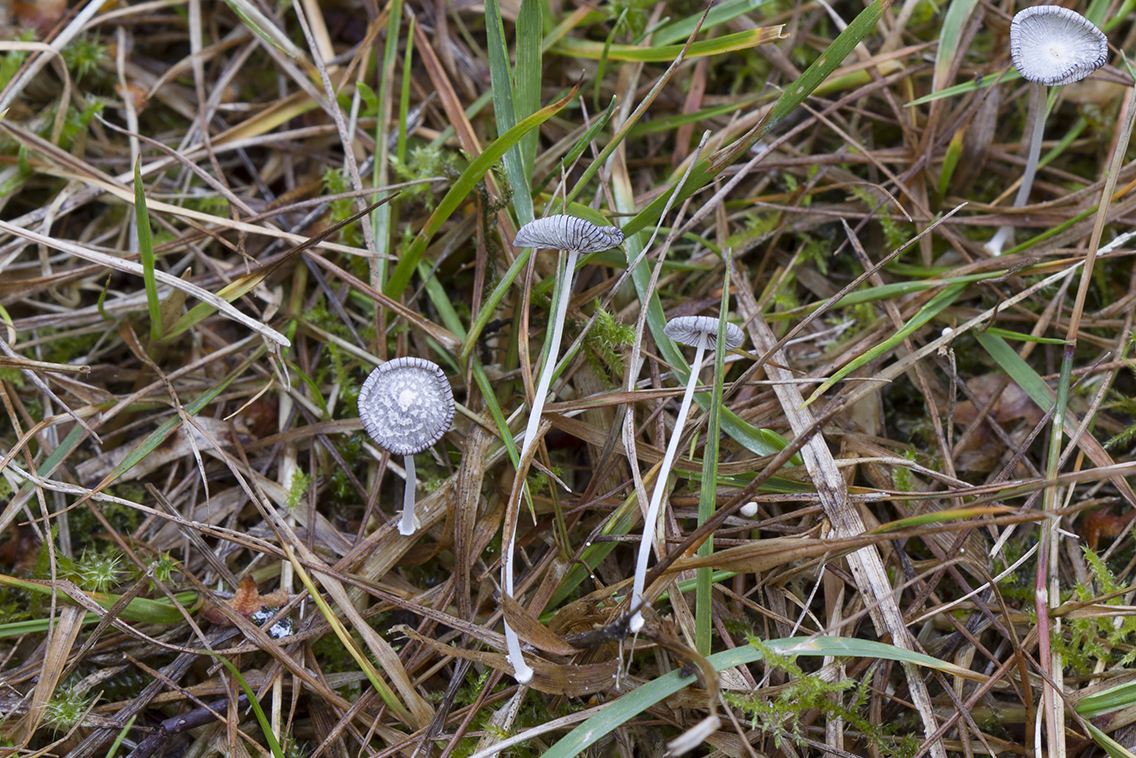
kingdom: Fungi
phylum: Basidiomycota
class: Agaricomycetes
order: Agaricales
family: Psathyrellaceae
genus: Coprinopsis
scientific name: Coprinopsis friesii
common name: græs-blækhat
